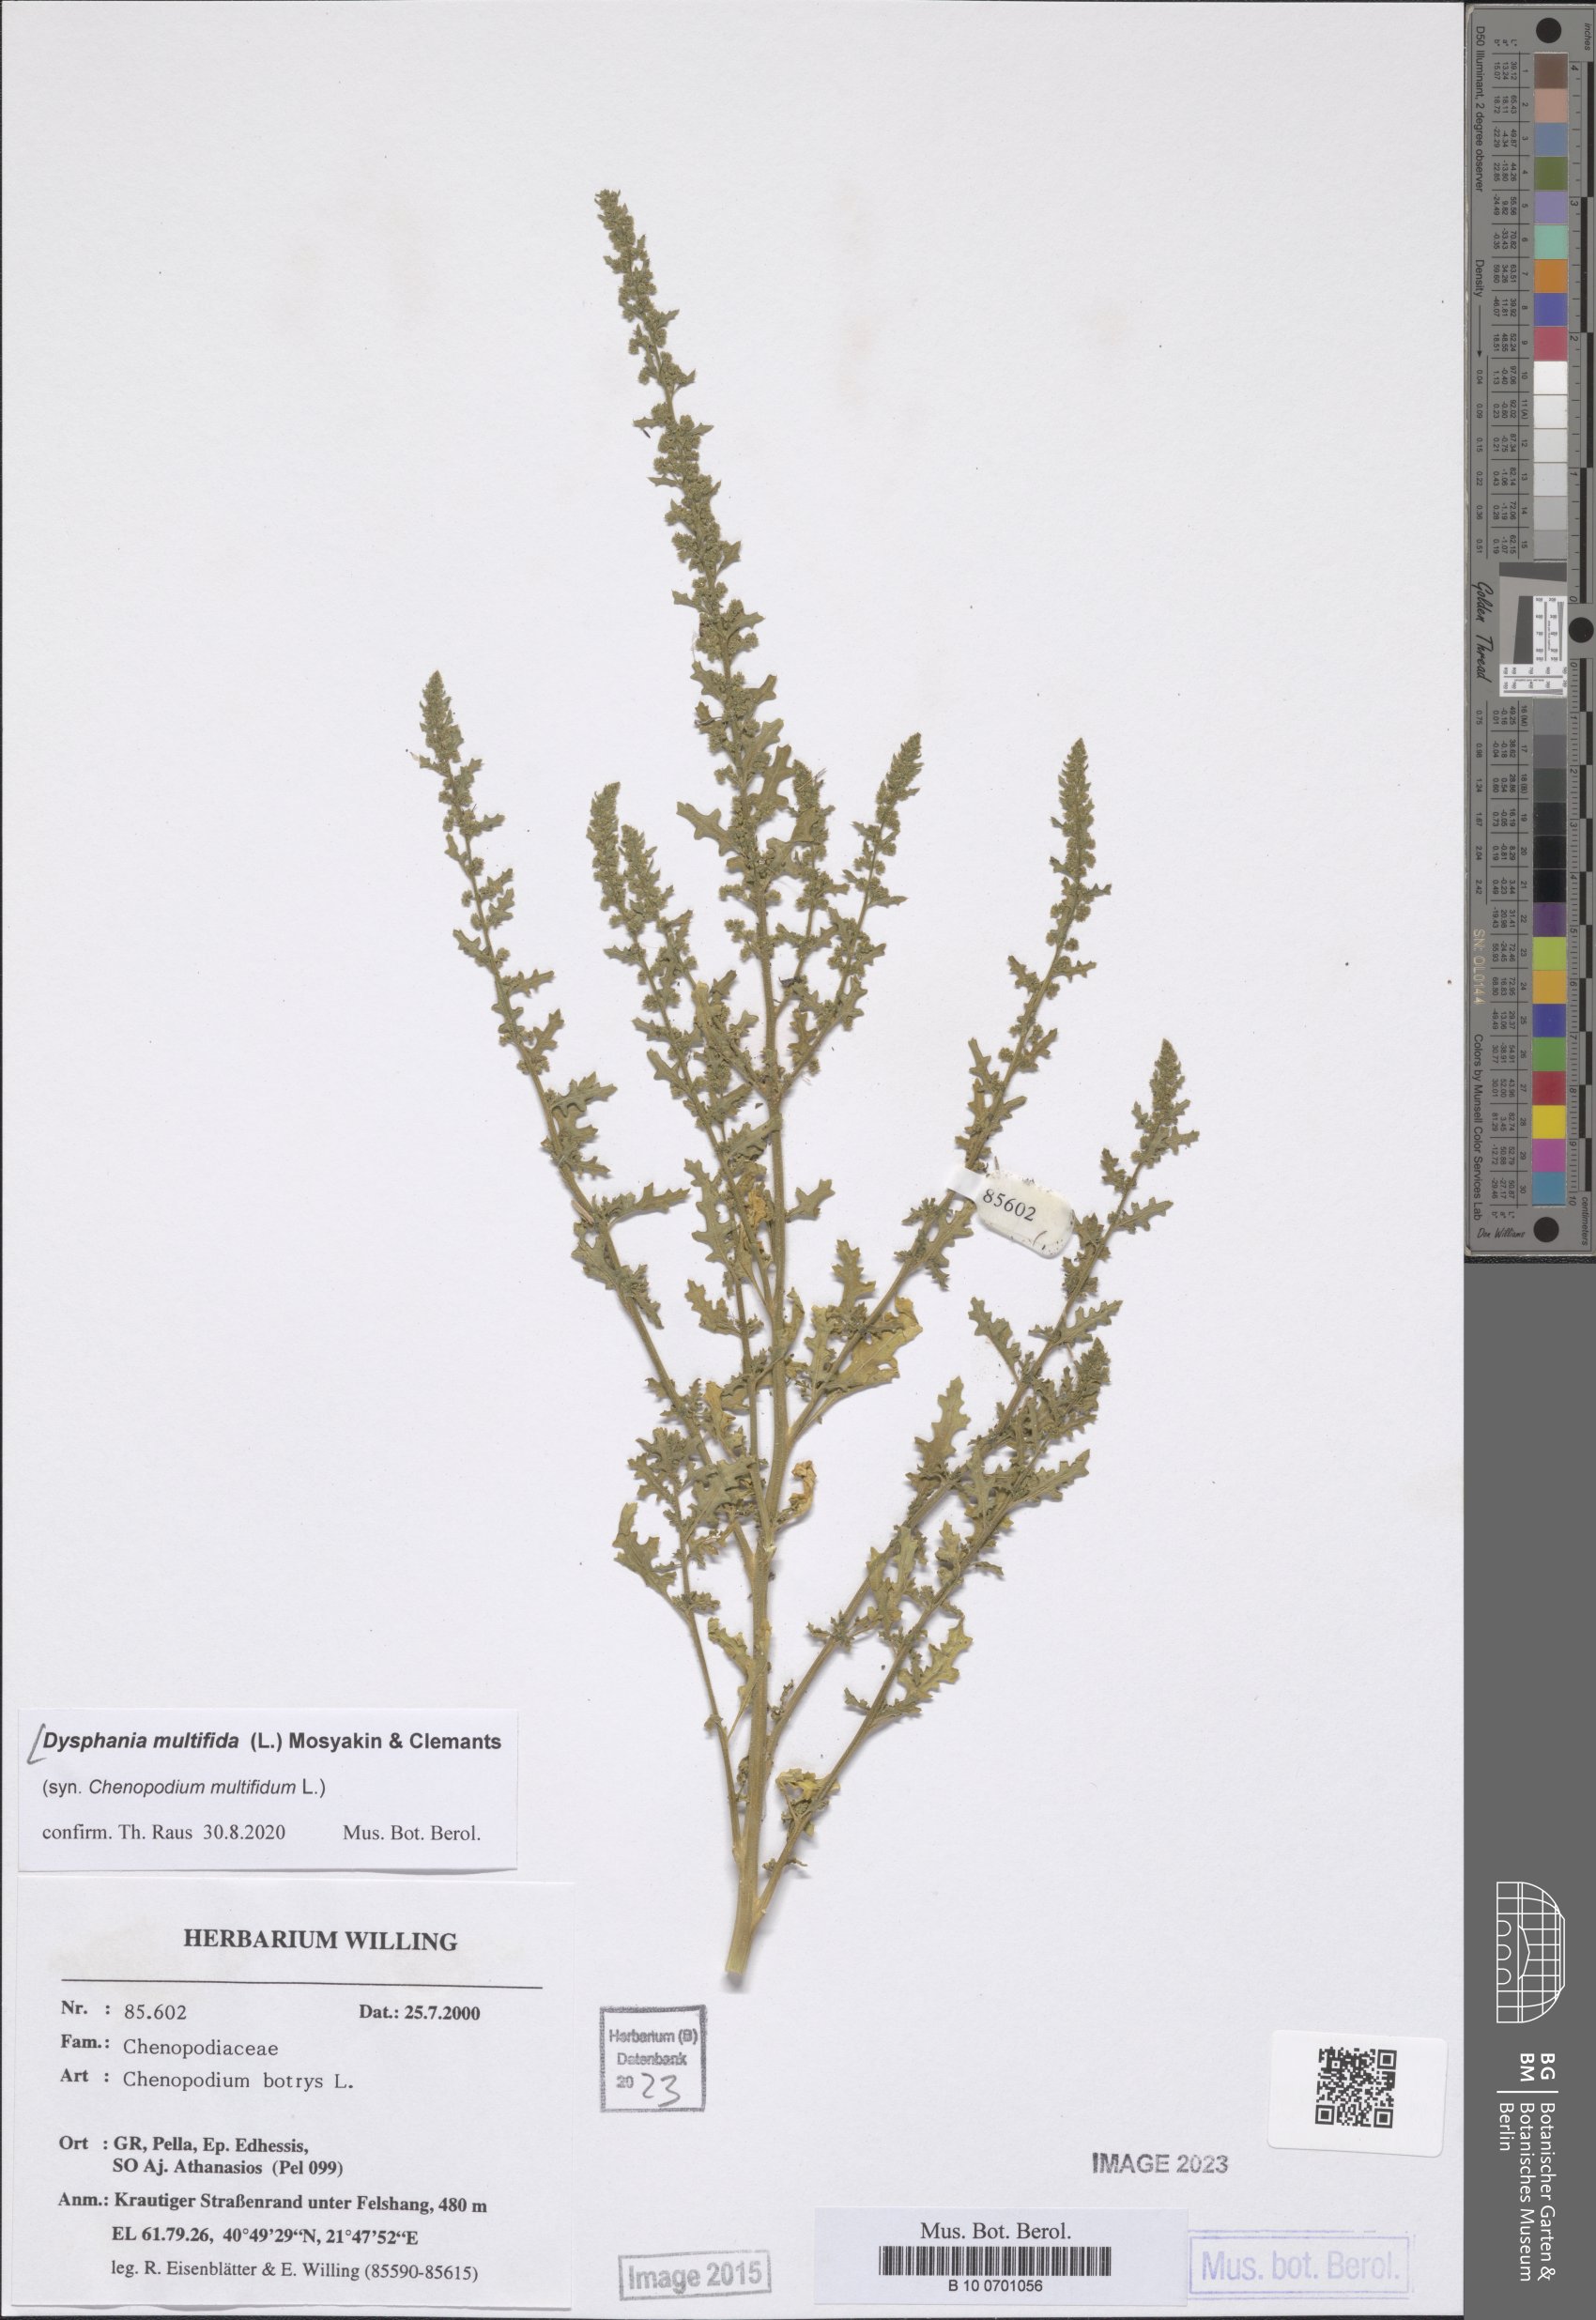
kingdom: Plantae
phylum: Tracheophyta
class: Magnoliopsida
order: Caryophyllales
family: Amaranthaceae
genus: Dysphania
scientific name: Dysphania botrys
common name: Feather-geranium
